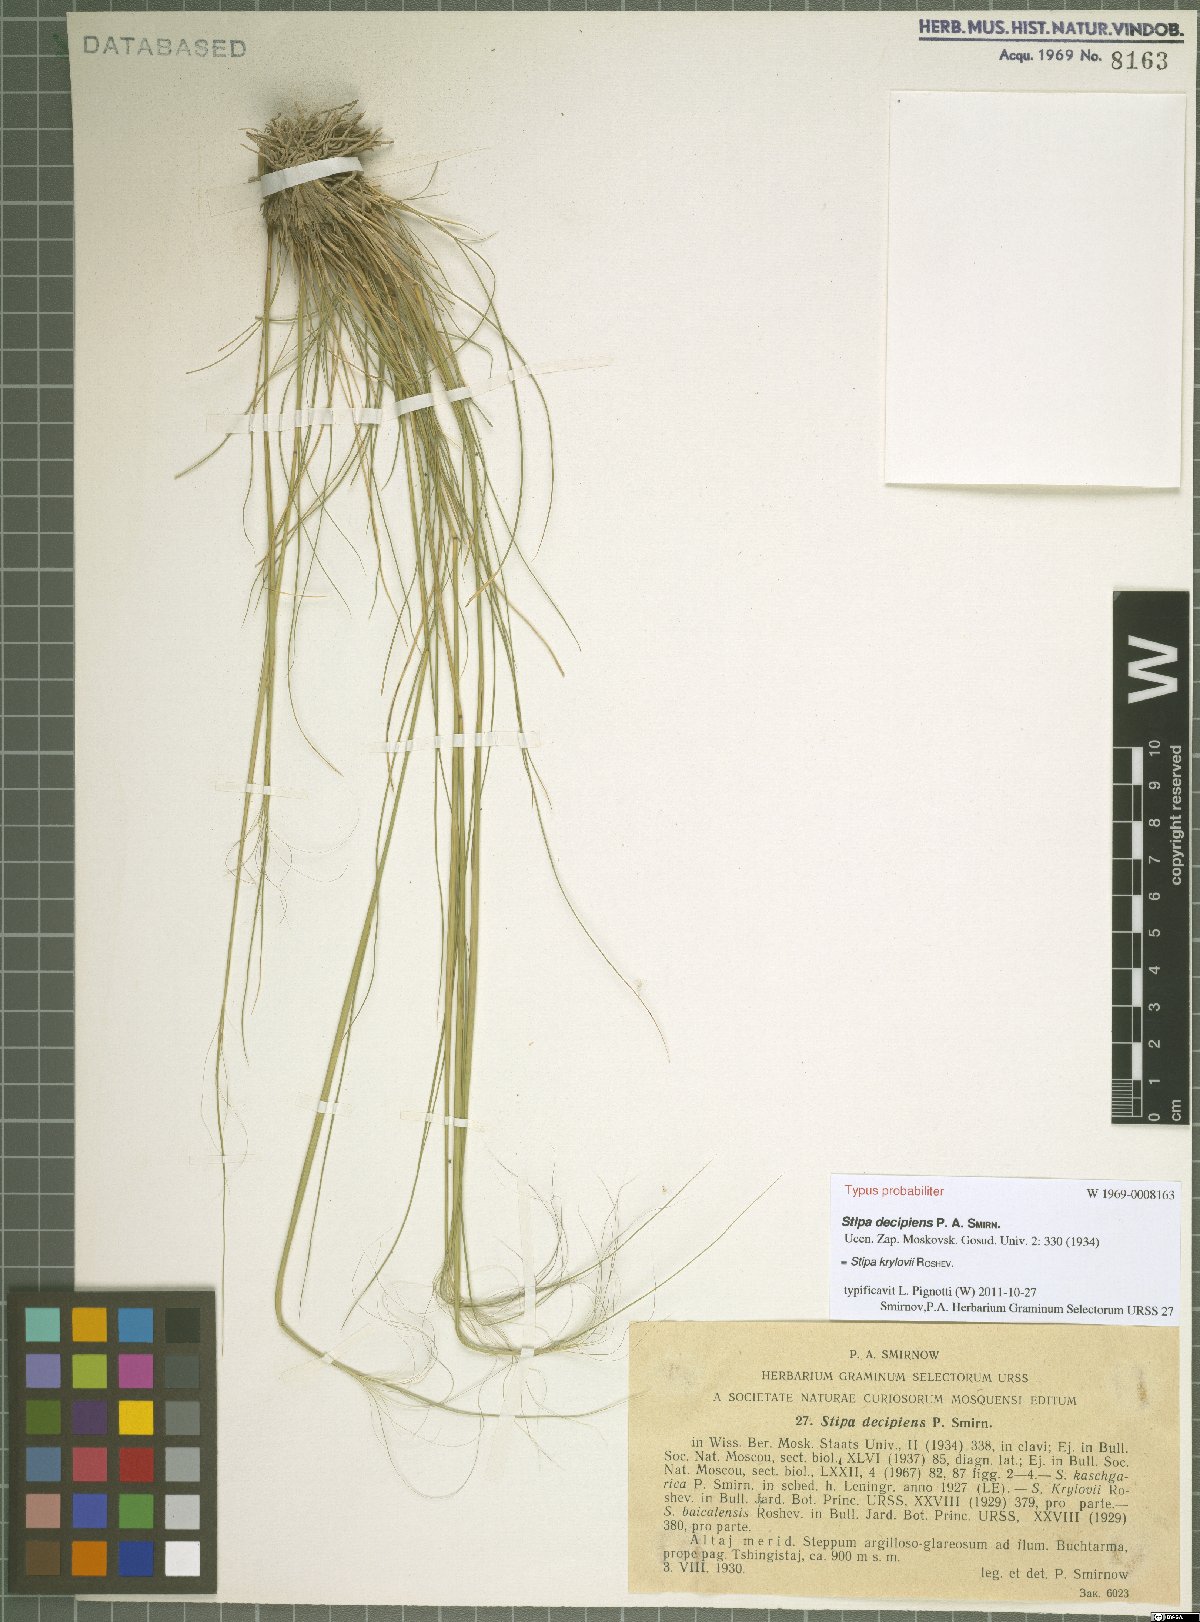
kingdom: Plantae
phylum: Tracheophyta
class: Liliopsida
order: Poales
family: Poaceae
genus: Stipa
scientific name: Stipa krylovii
